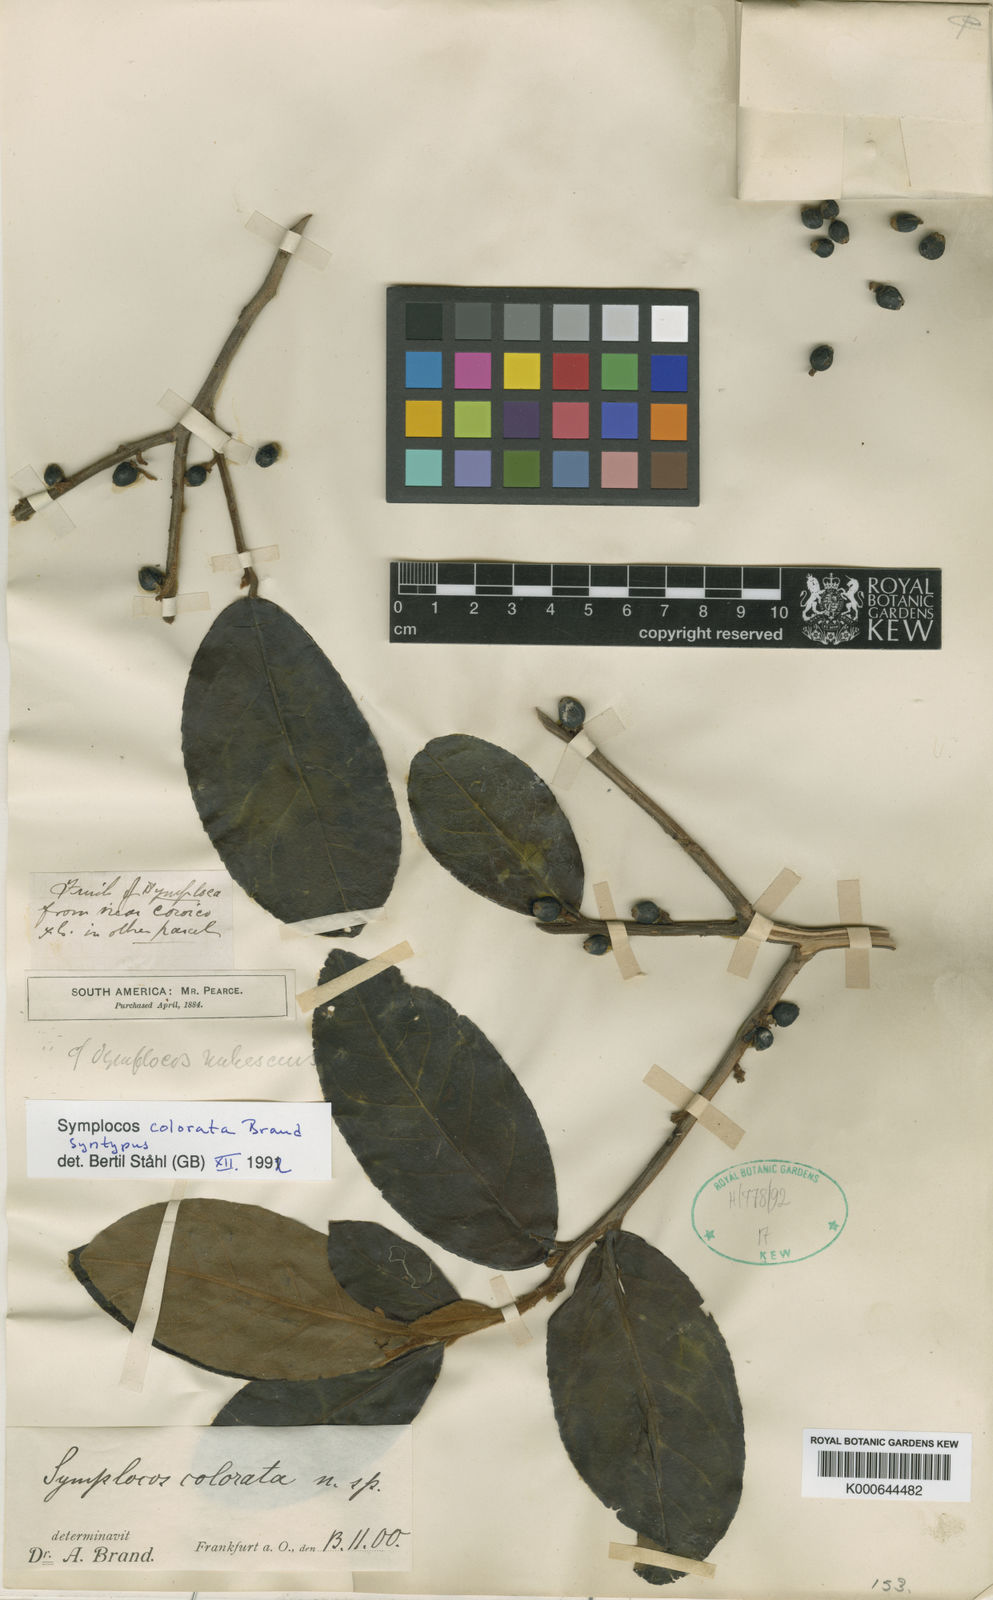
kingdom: Plantae
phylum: Tracheophyta
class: Magnoliopsida
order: Ericales
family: Symplocaceae
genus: Symplocos
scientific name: Symplocos colorata
